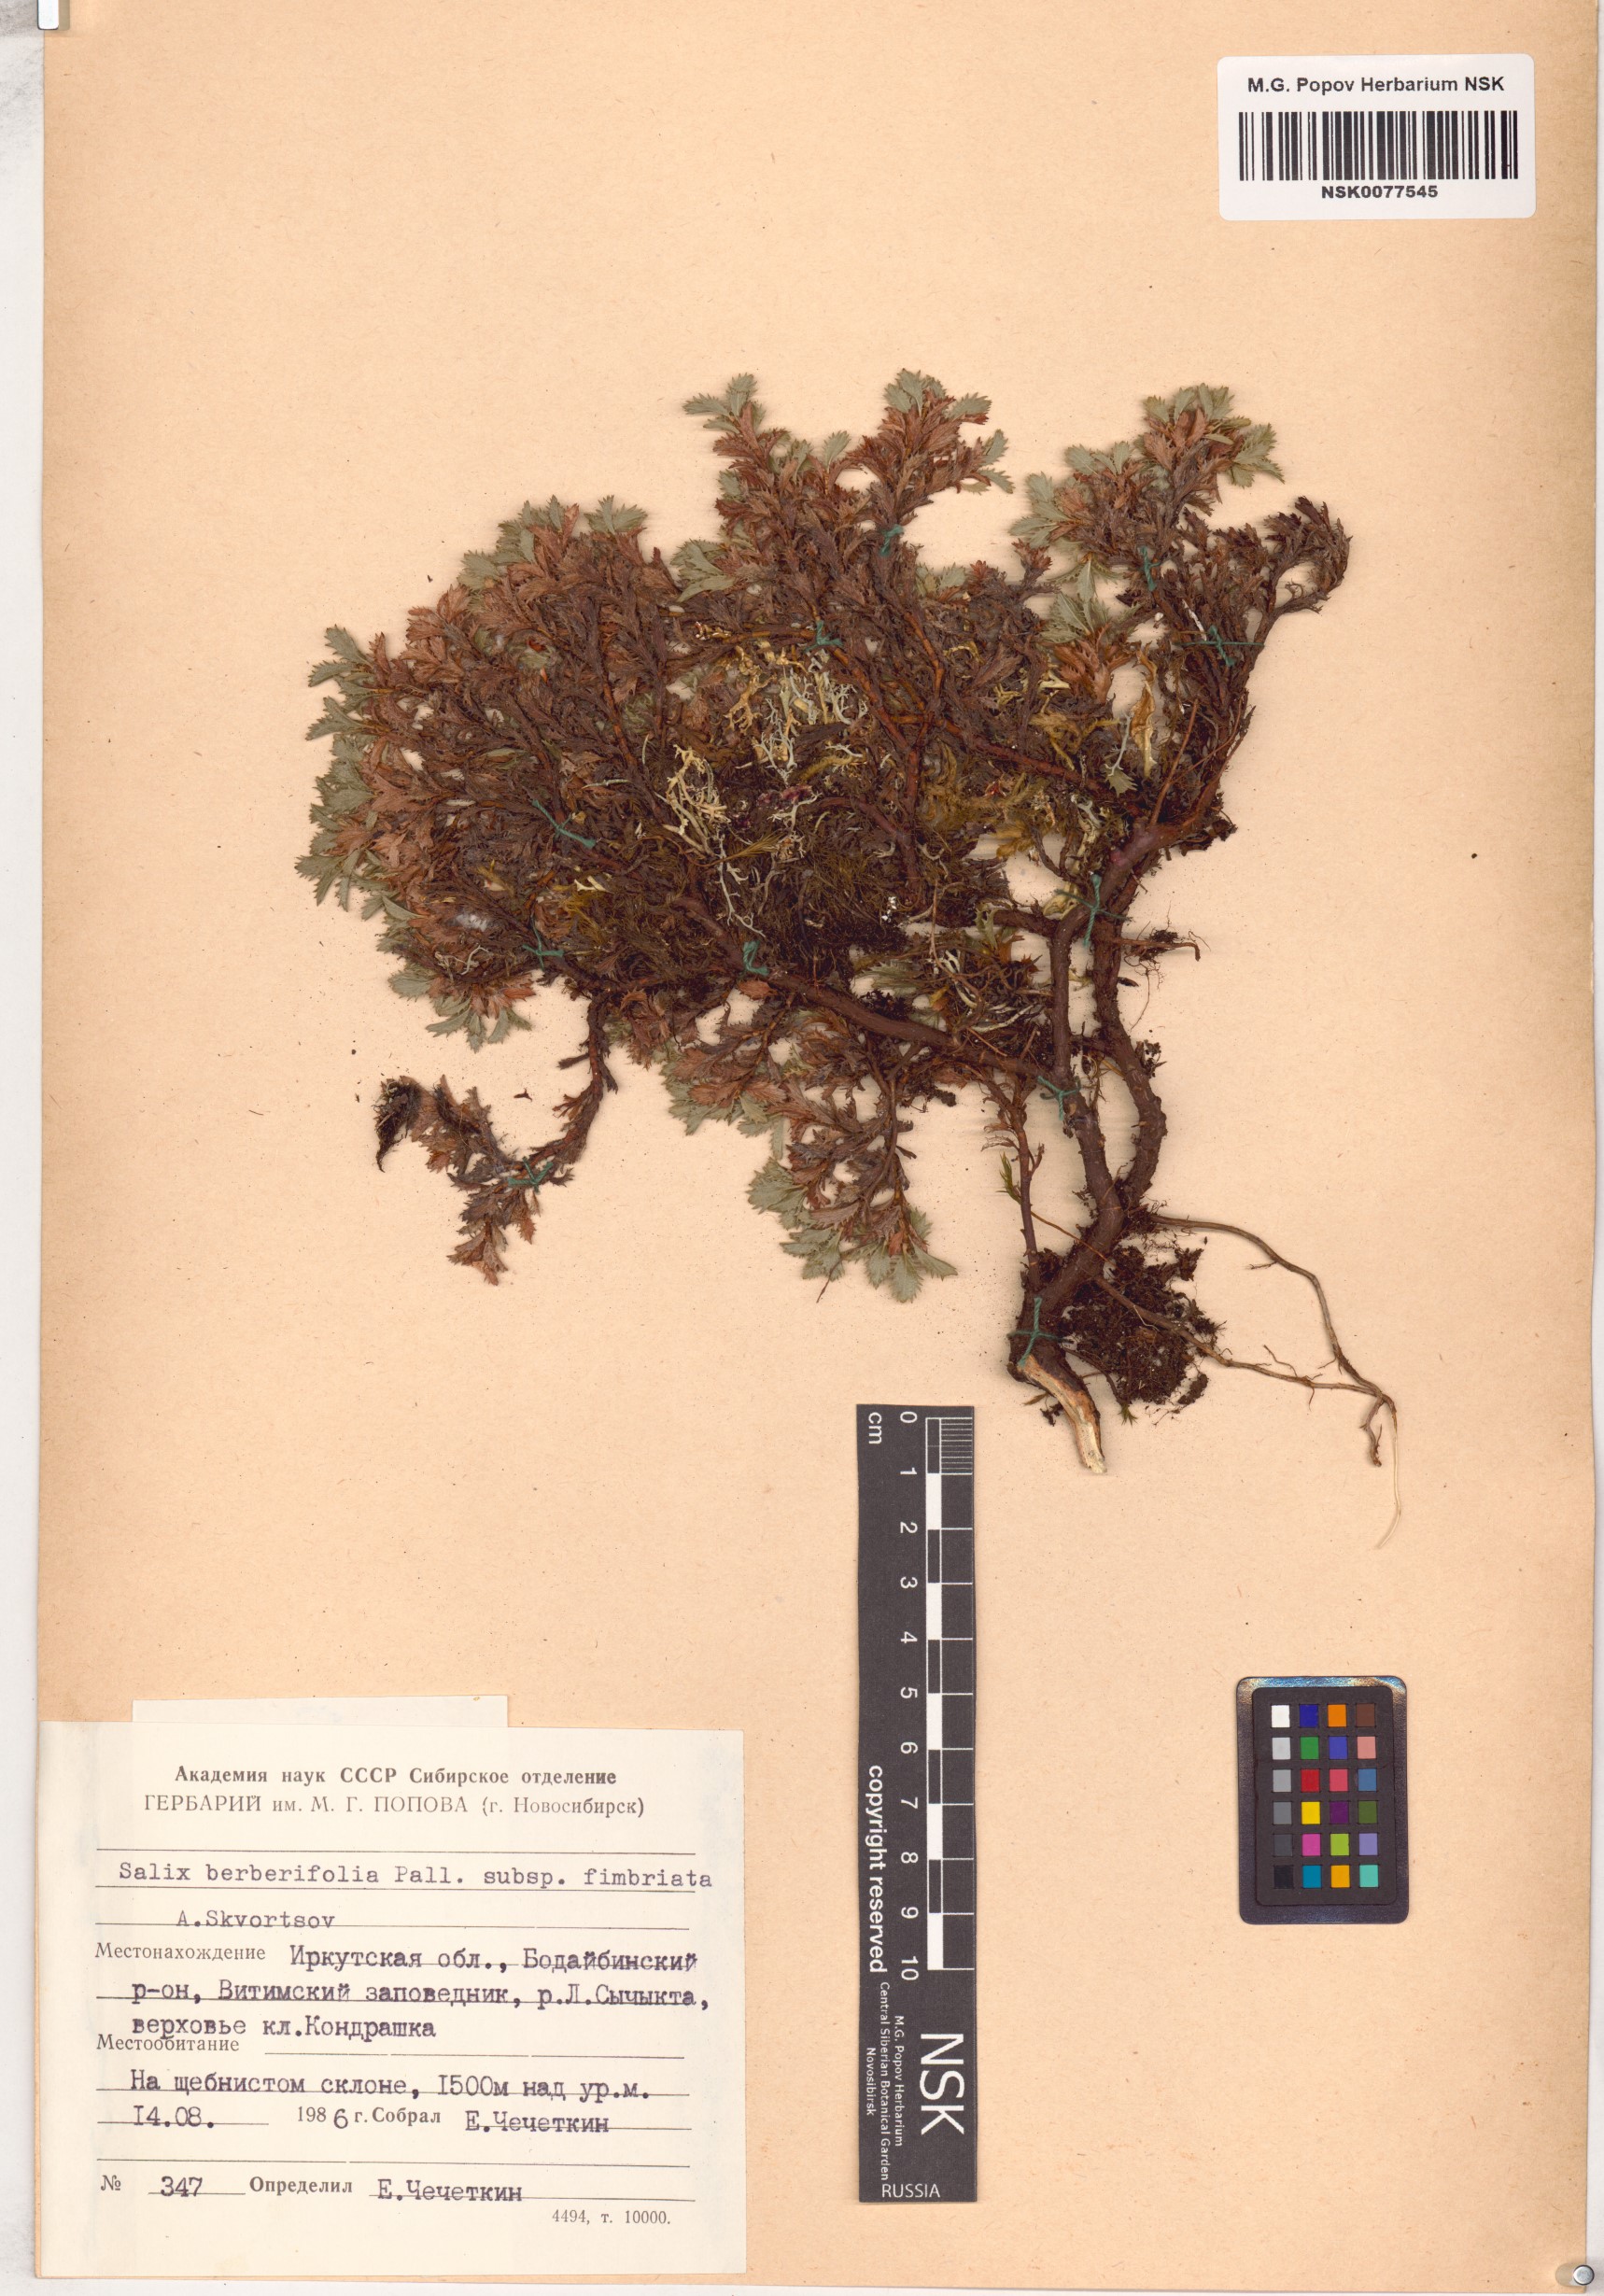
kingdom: Plantae
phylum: Tracheophyta
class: Magnoliopsida
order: Malpighiales
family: Salicaceae
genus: Salix
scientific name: Salix berberifolia
